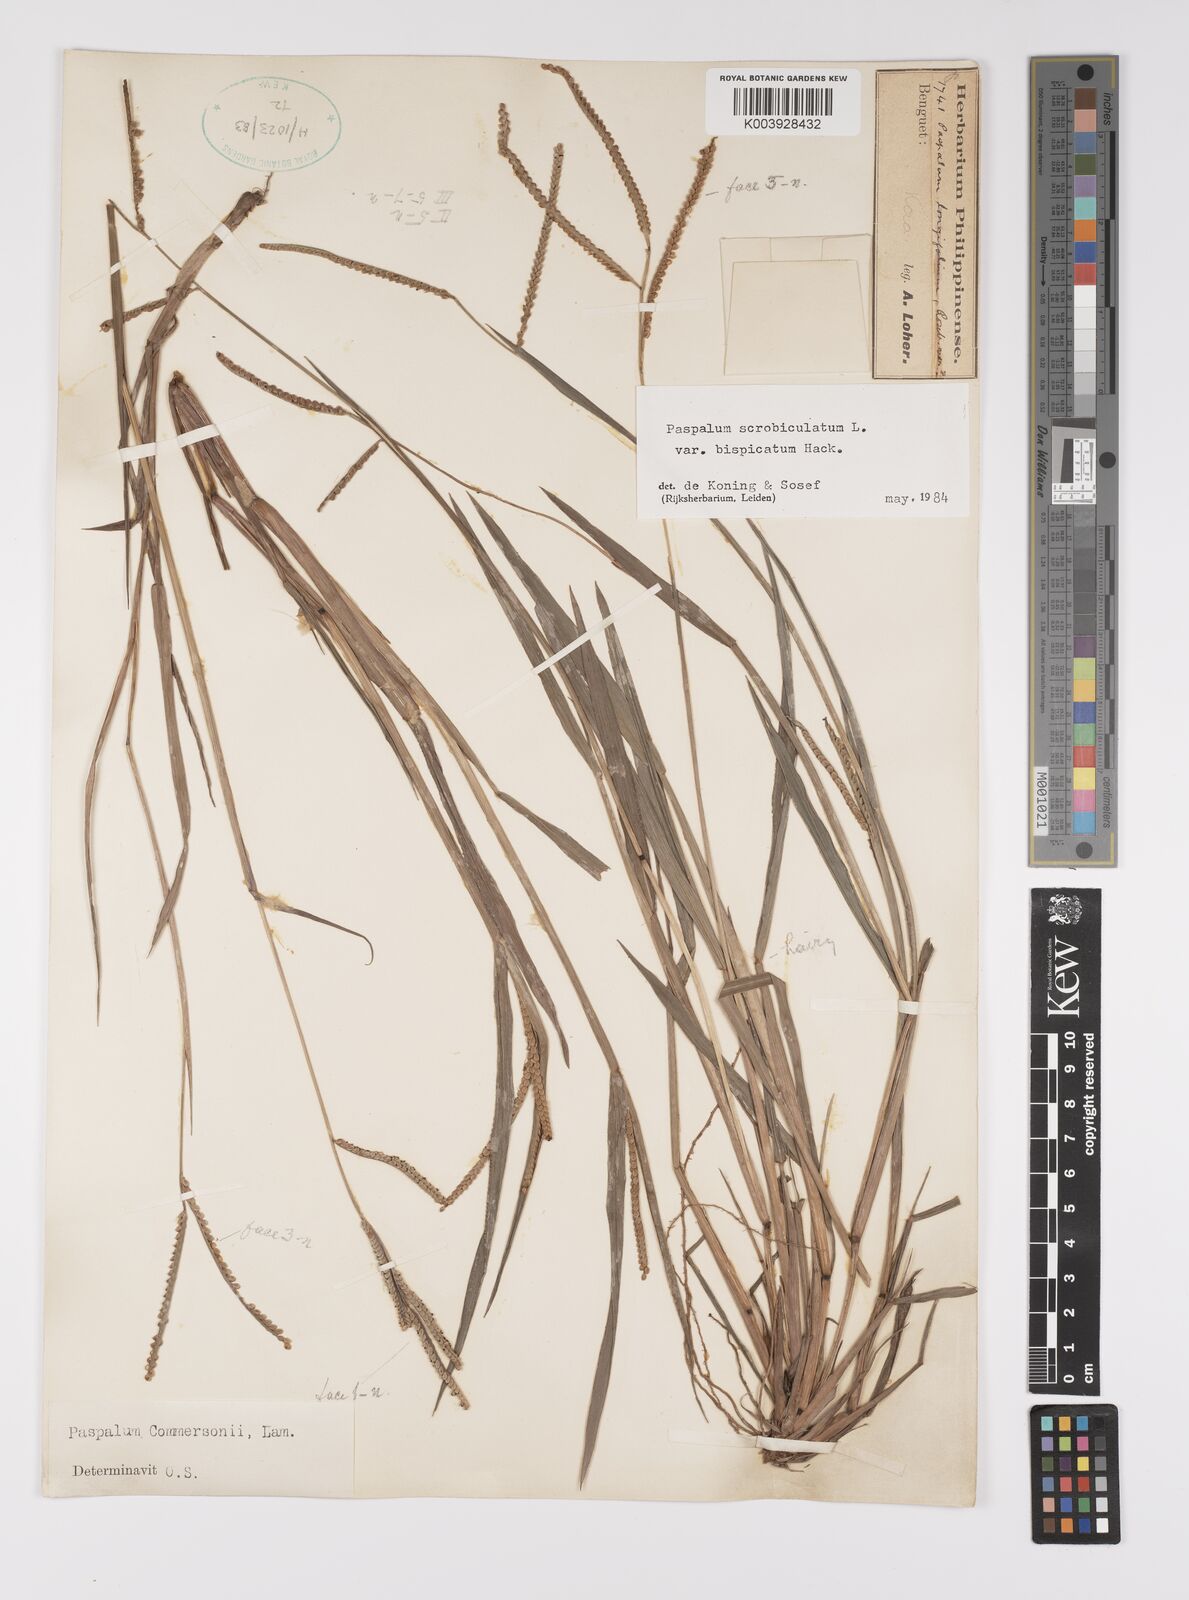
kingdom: Plantae
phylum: Tracheophyta
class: Liliopsida
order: Poales
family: Poaceae
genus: Paspalum
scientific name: Paspalum scrobiculatum
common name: Kodo millet
